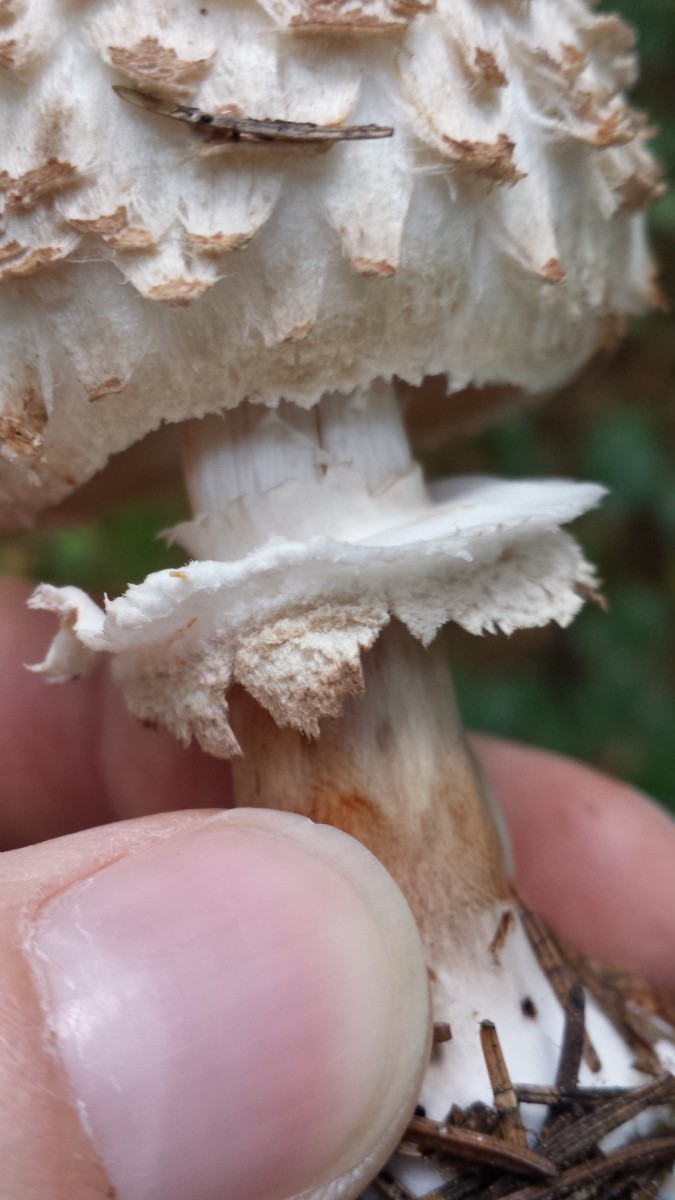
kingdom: Fungi
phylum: Basidiomycota
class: Agaricomycetes
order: Agaricales
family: Agaricaceae
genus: Chlorophyllum
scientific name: Chlorophyllum olivieri
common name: almindelig rabarberhat
